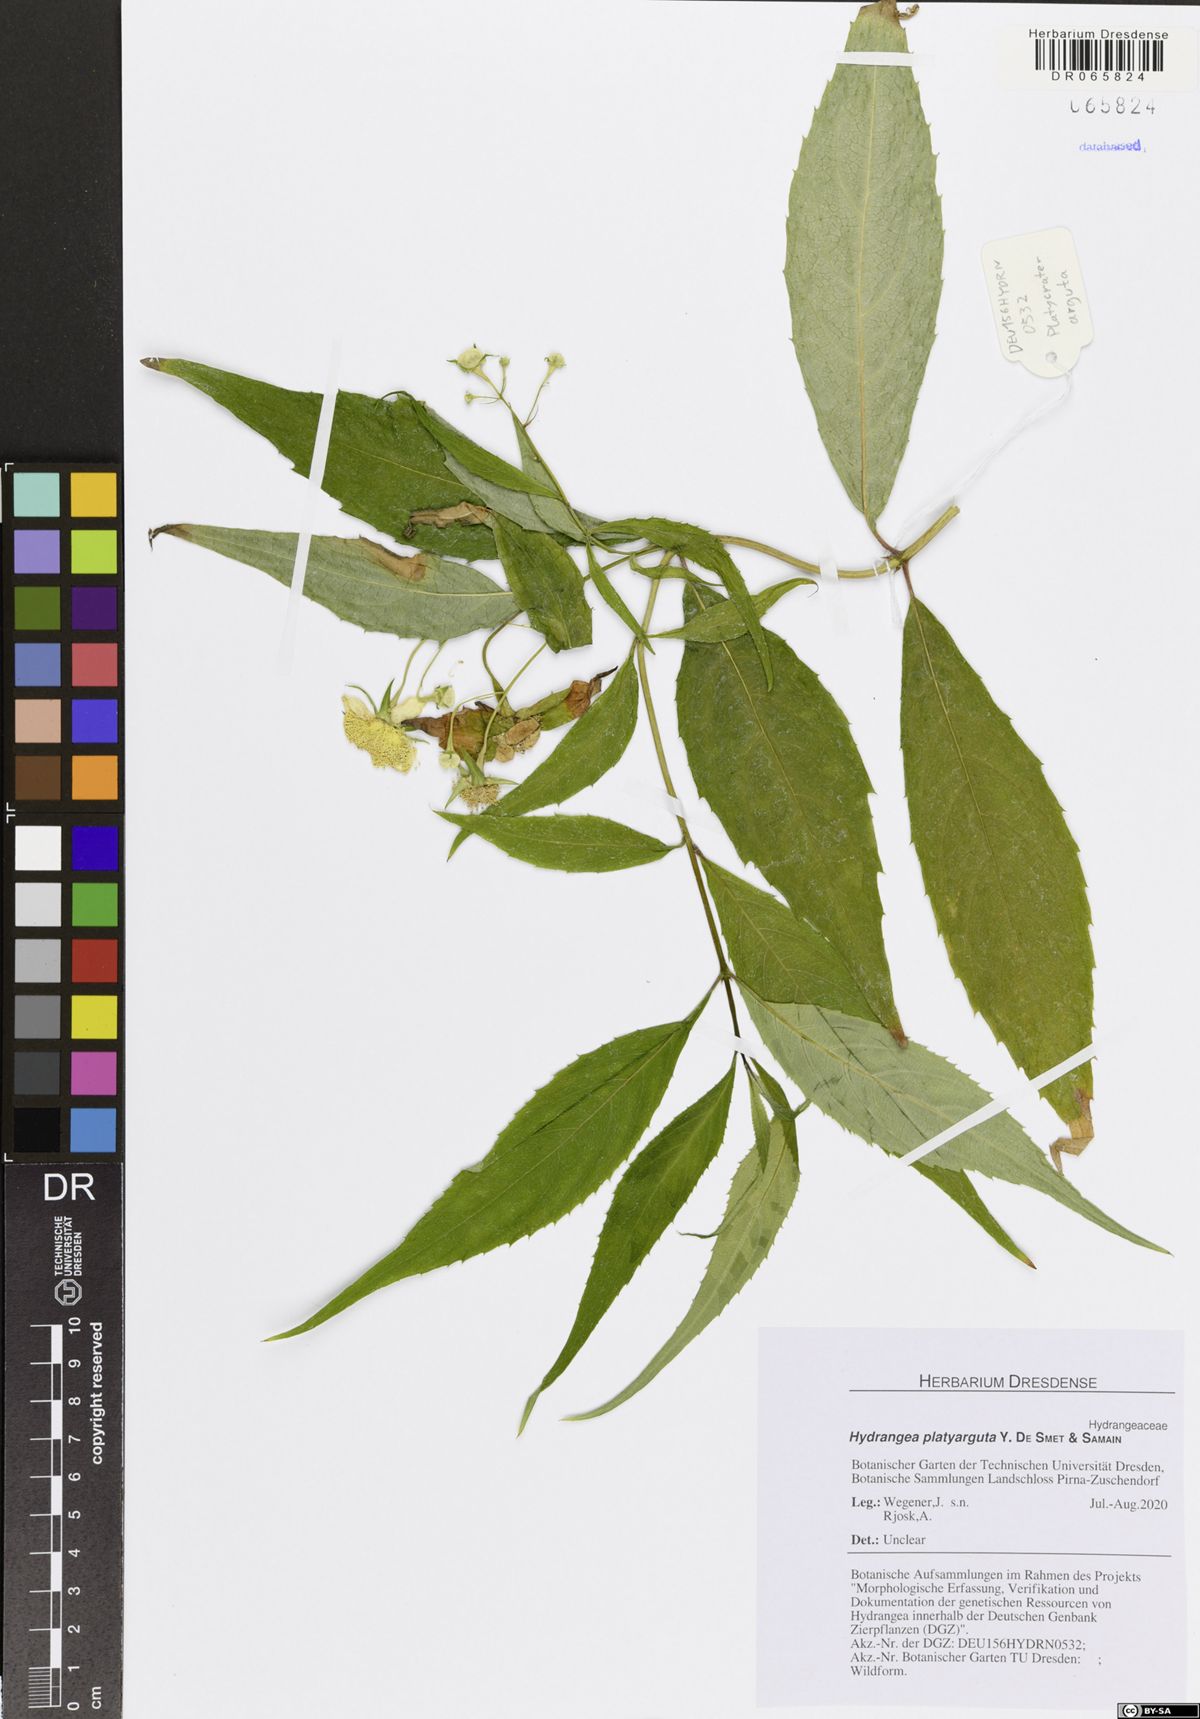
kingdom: Plantae
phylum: Tracheophyta
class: Magnoliopsida
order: Cornales
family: Hydrangeaceae
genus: Hydrangea
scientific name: Hydrangea platyarguta
